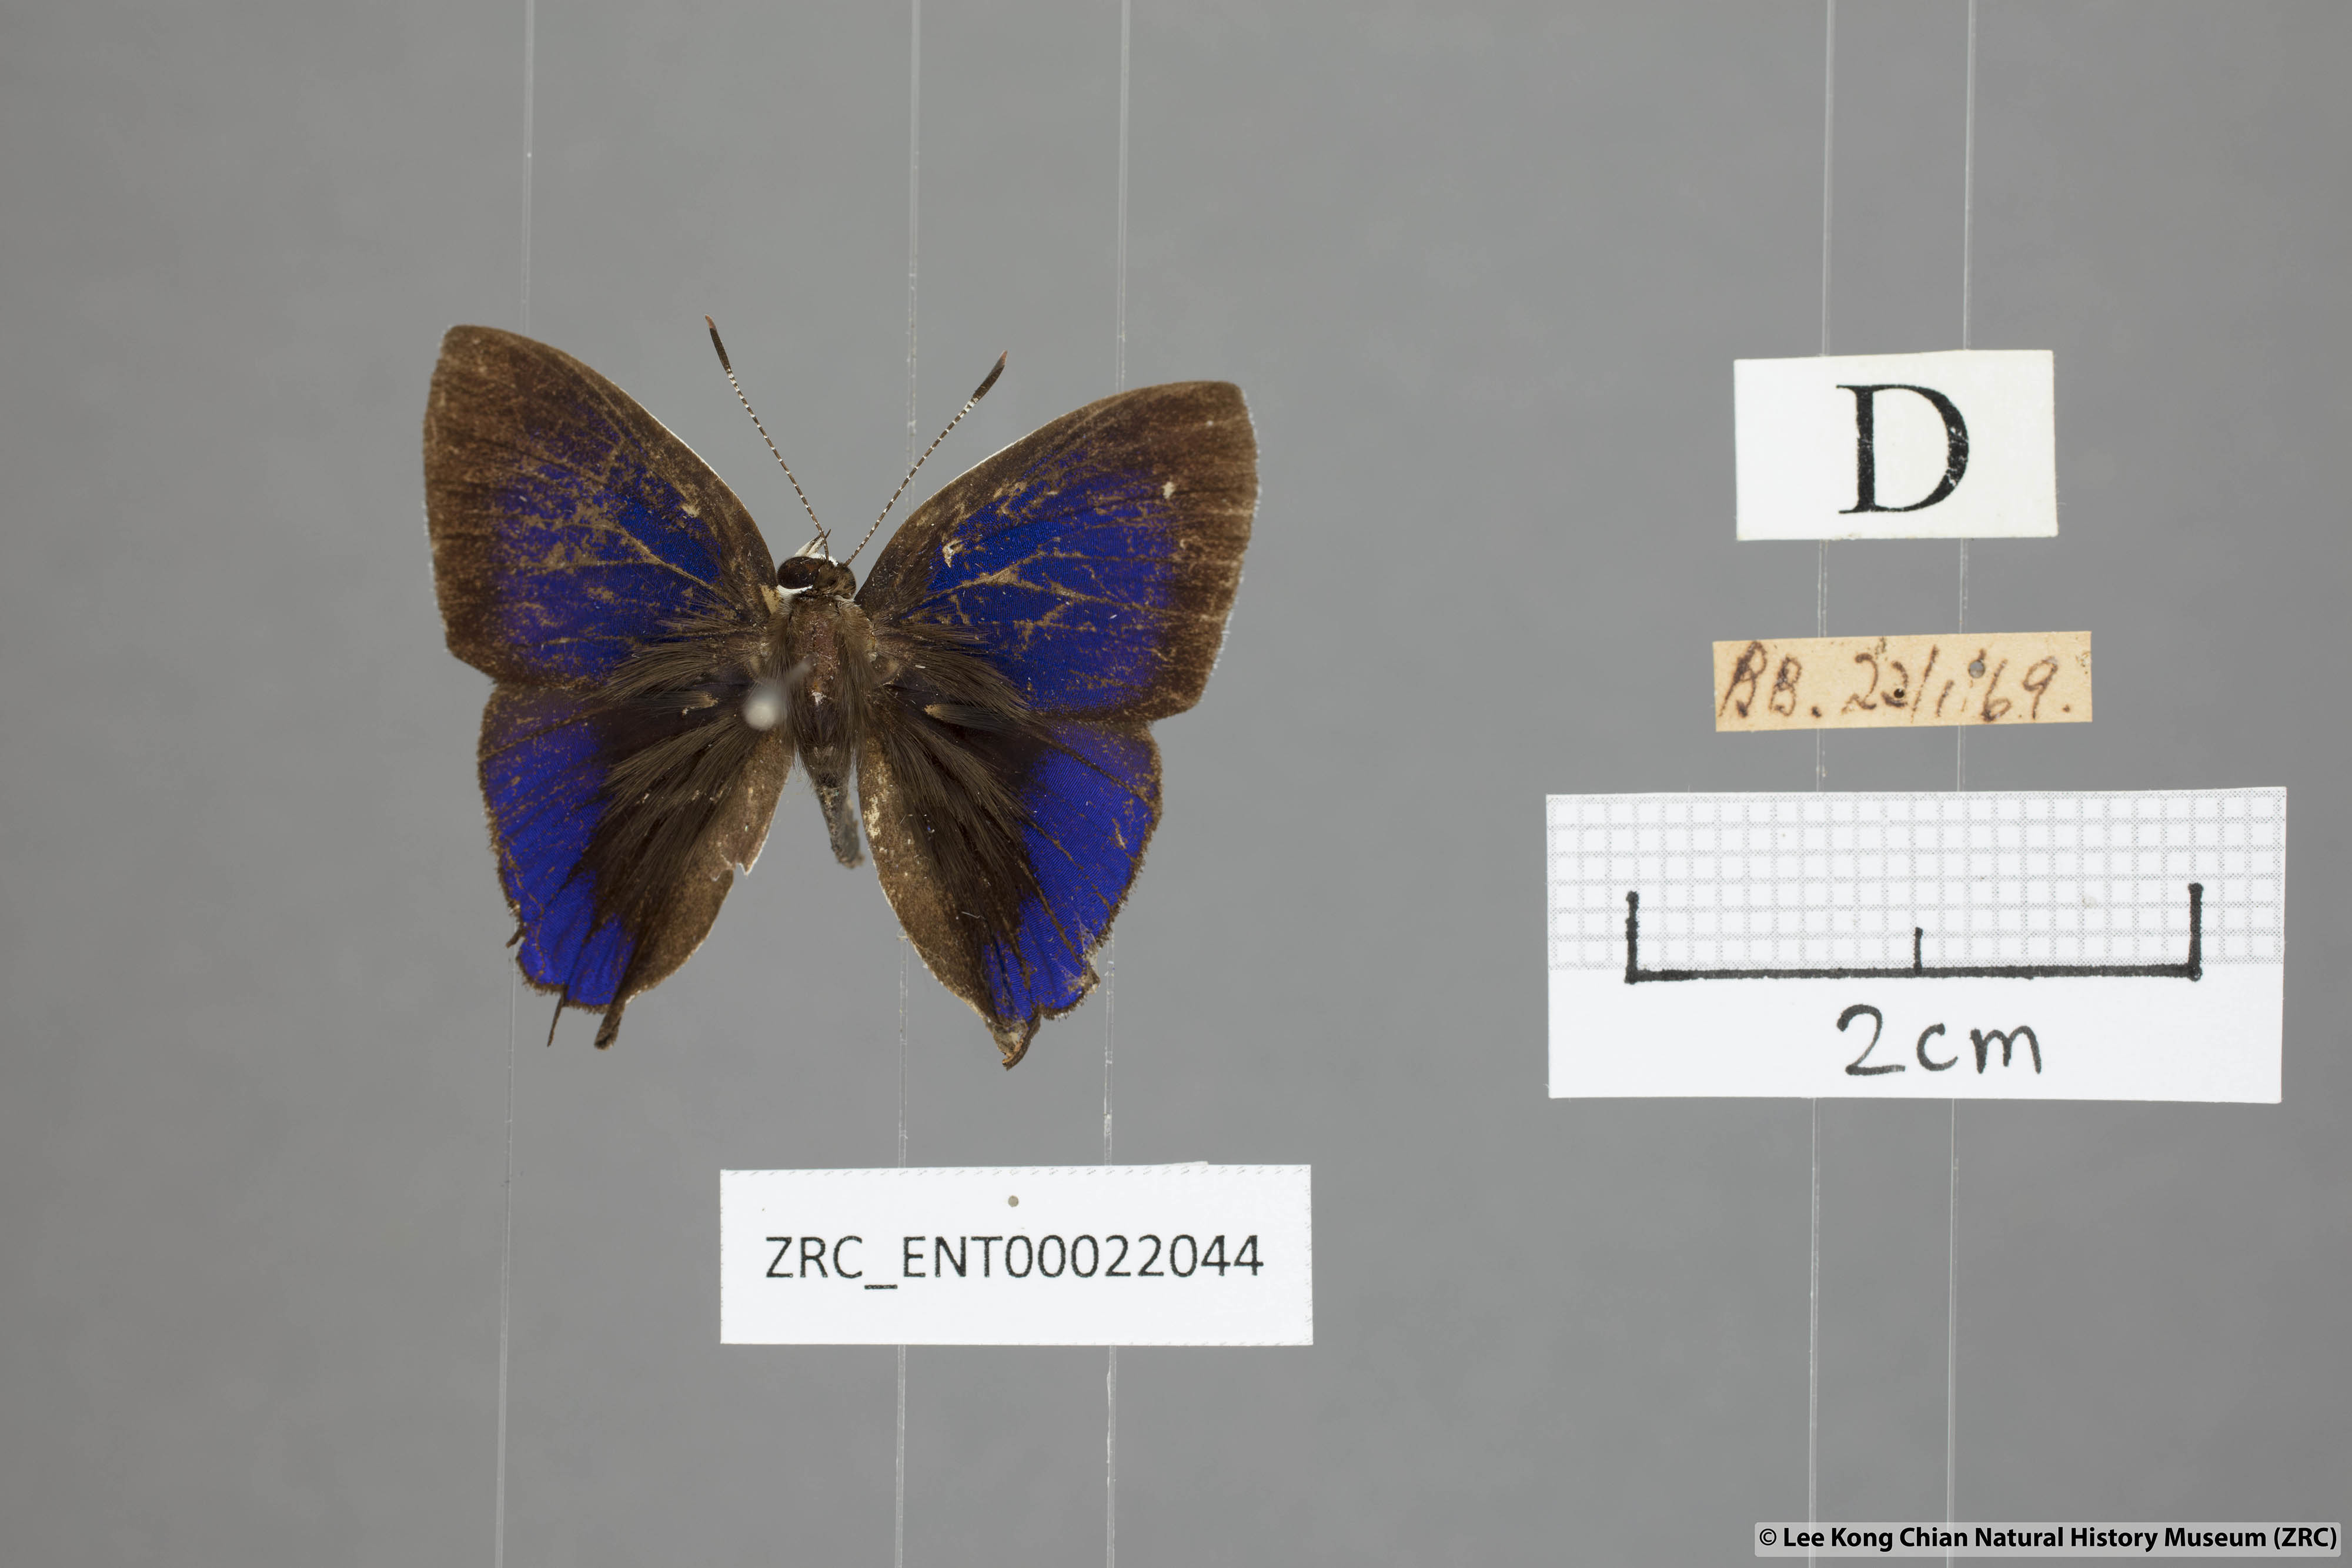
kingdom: Animalia
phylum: Arthropoda
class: Insecta
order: Lepidoptera
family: Lycaenidae
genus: Sithon
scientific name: Sithon nedymond
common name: Plush
